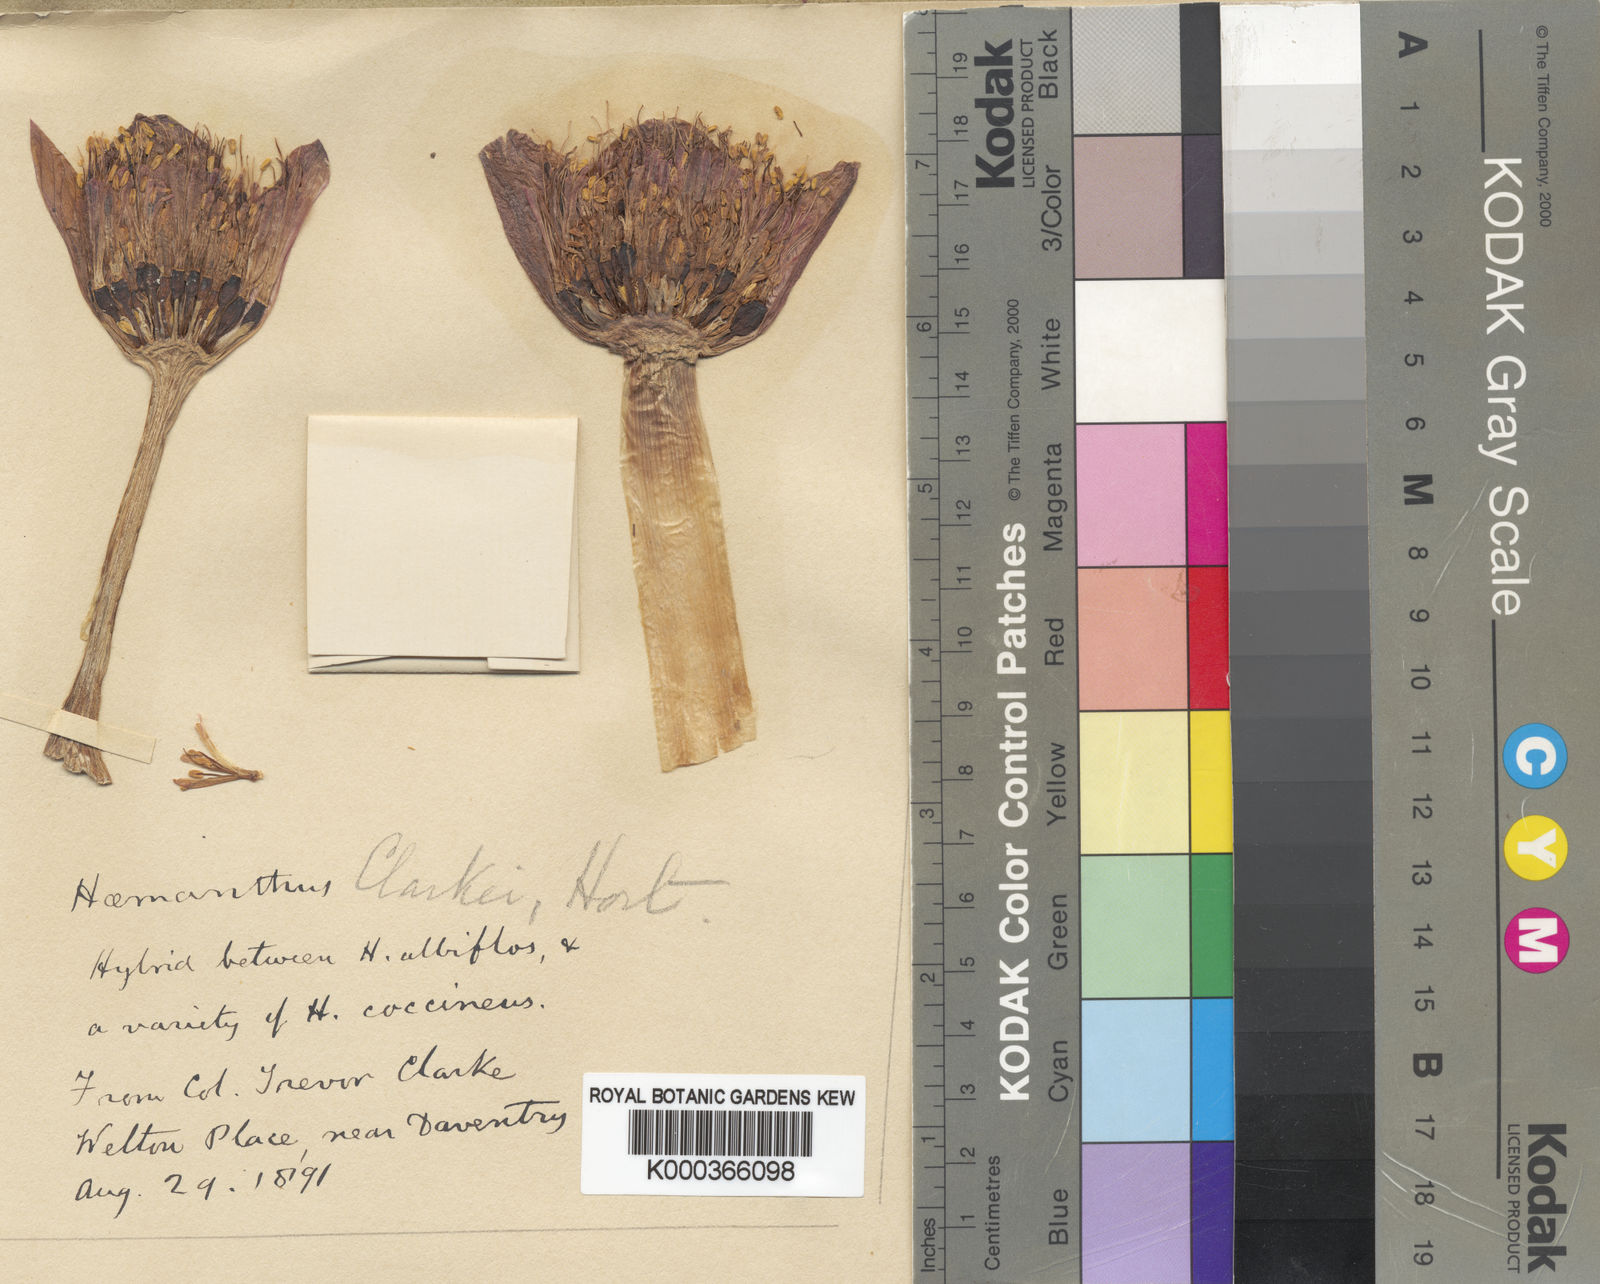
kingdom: Plantae
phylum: Tracheophyta
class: Liliopsida
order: Asparagales
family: Amaryllidaceae
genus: Haemanthus
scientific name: Haemanthus clarkei
